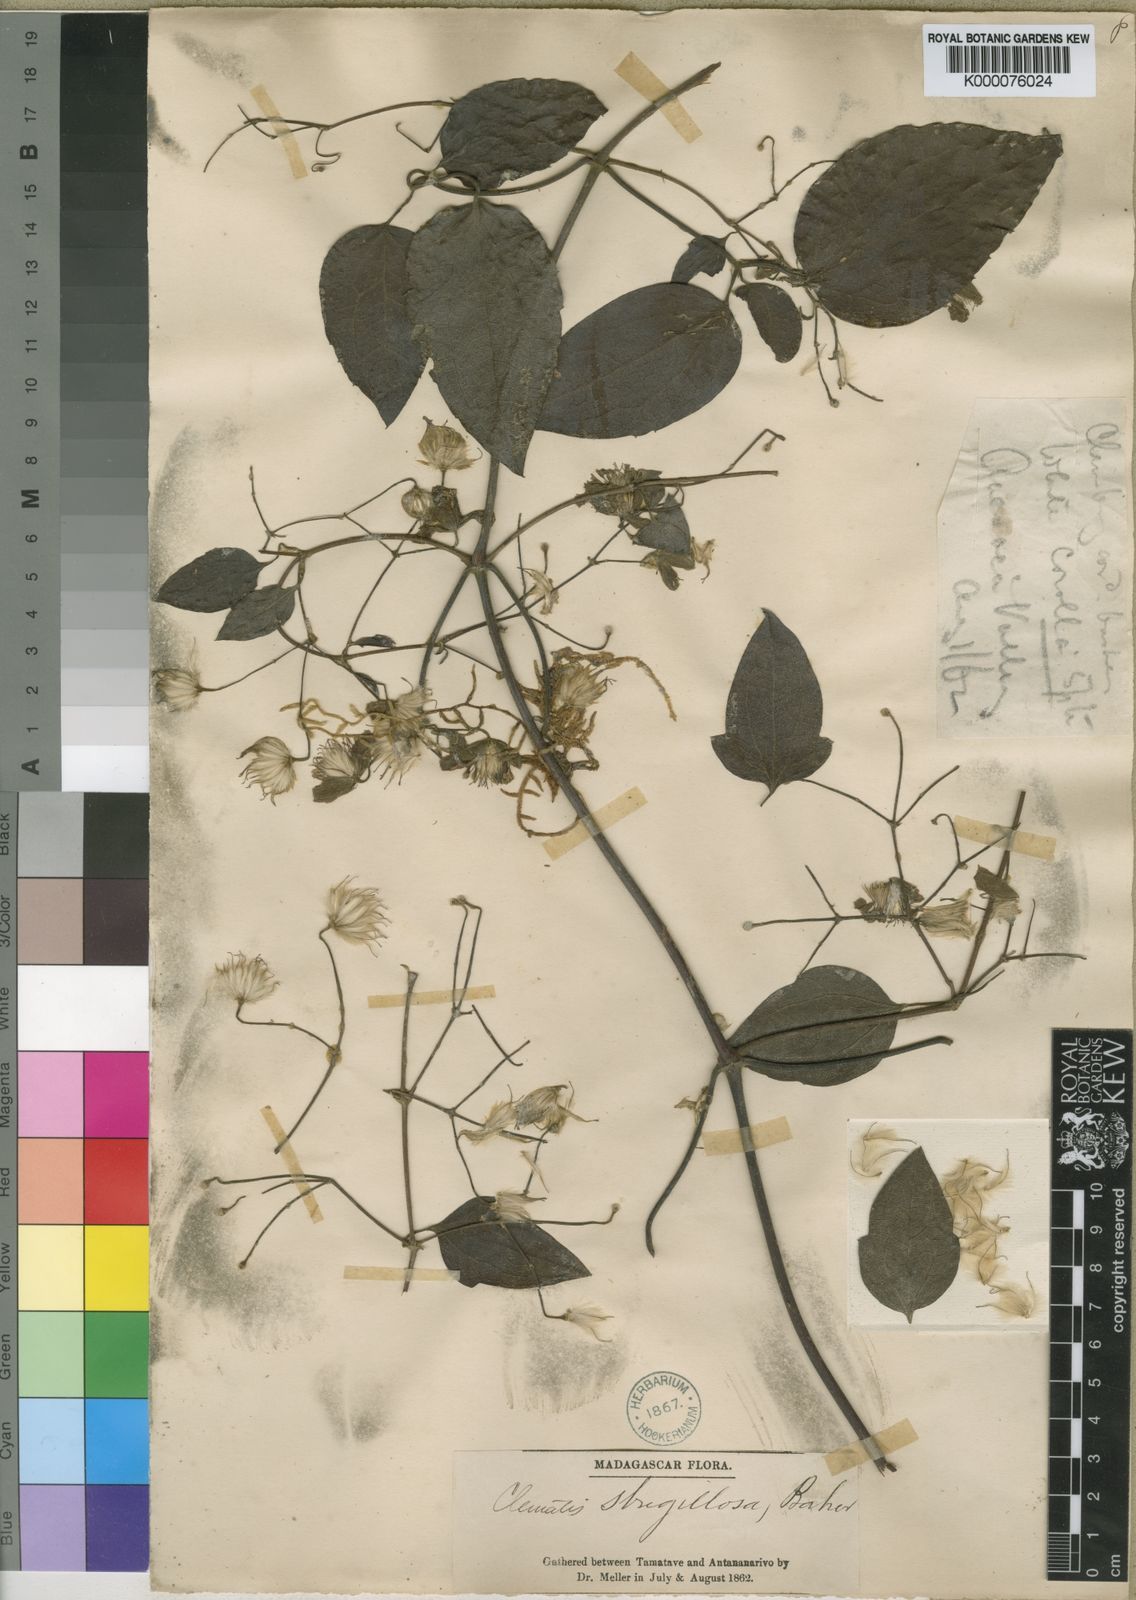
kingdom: Plantae
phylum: Tracheophyta
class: Magnoliopsida
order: Ranunculales
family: Ranunculaceae
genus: Clematis
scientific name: Clematis mauritiana
